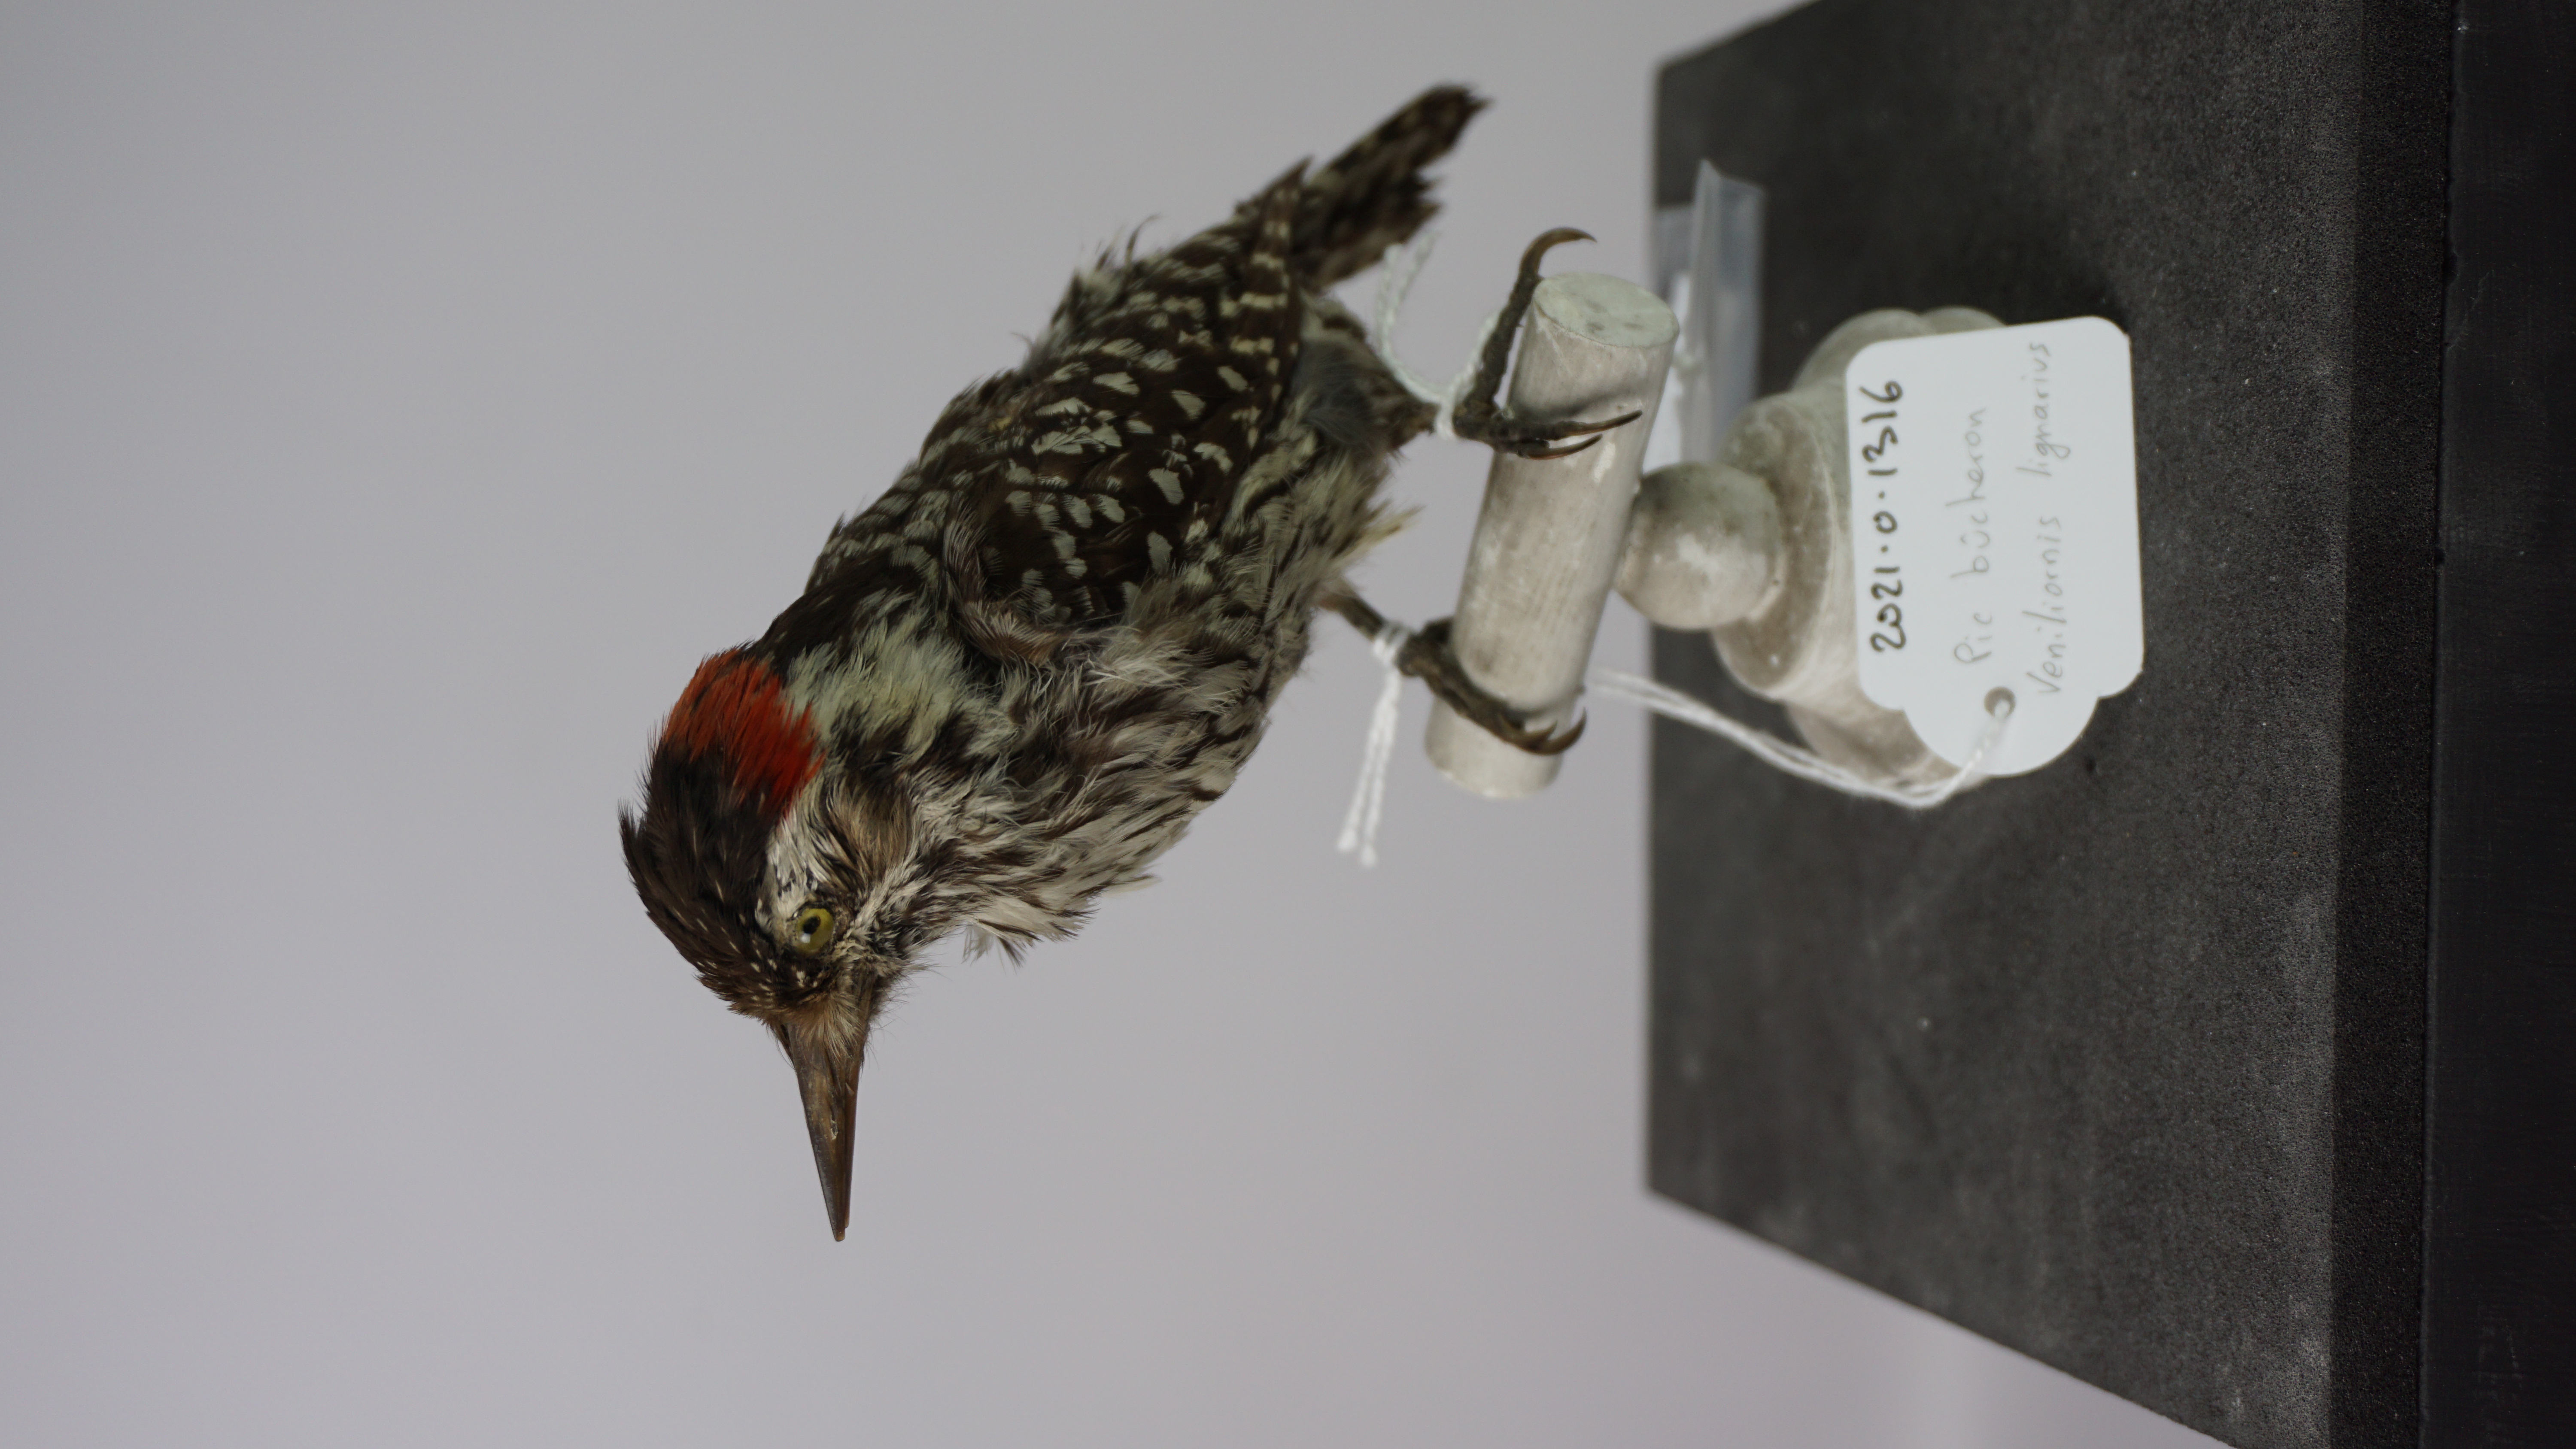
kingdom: Animalia
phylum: Chordata
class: Aves
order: Piciformes
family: Picidae
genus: Veniliornis
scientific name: Veniliornis lignarius
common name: Striped woodpecker
